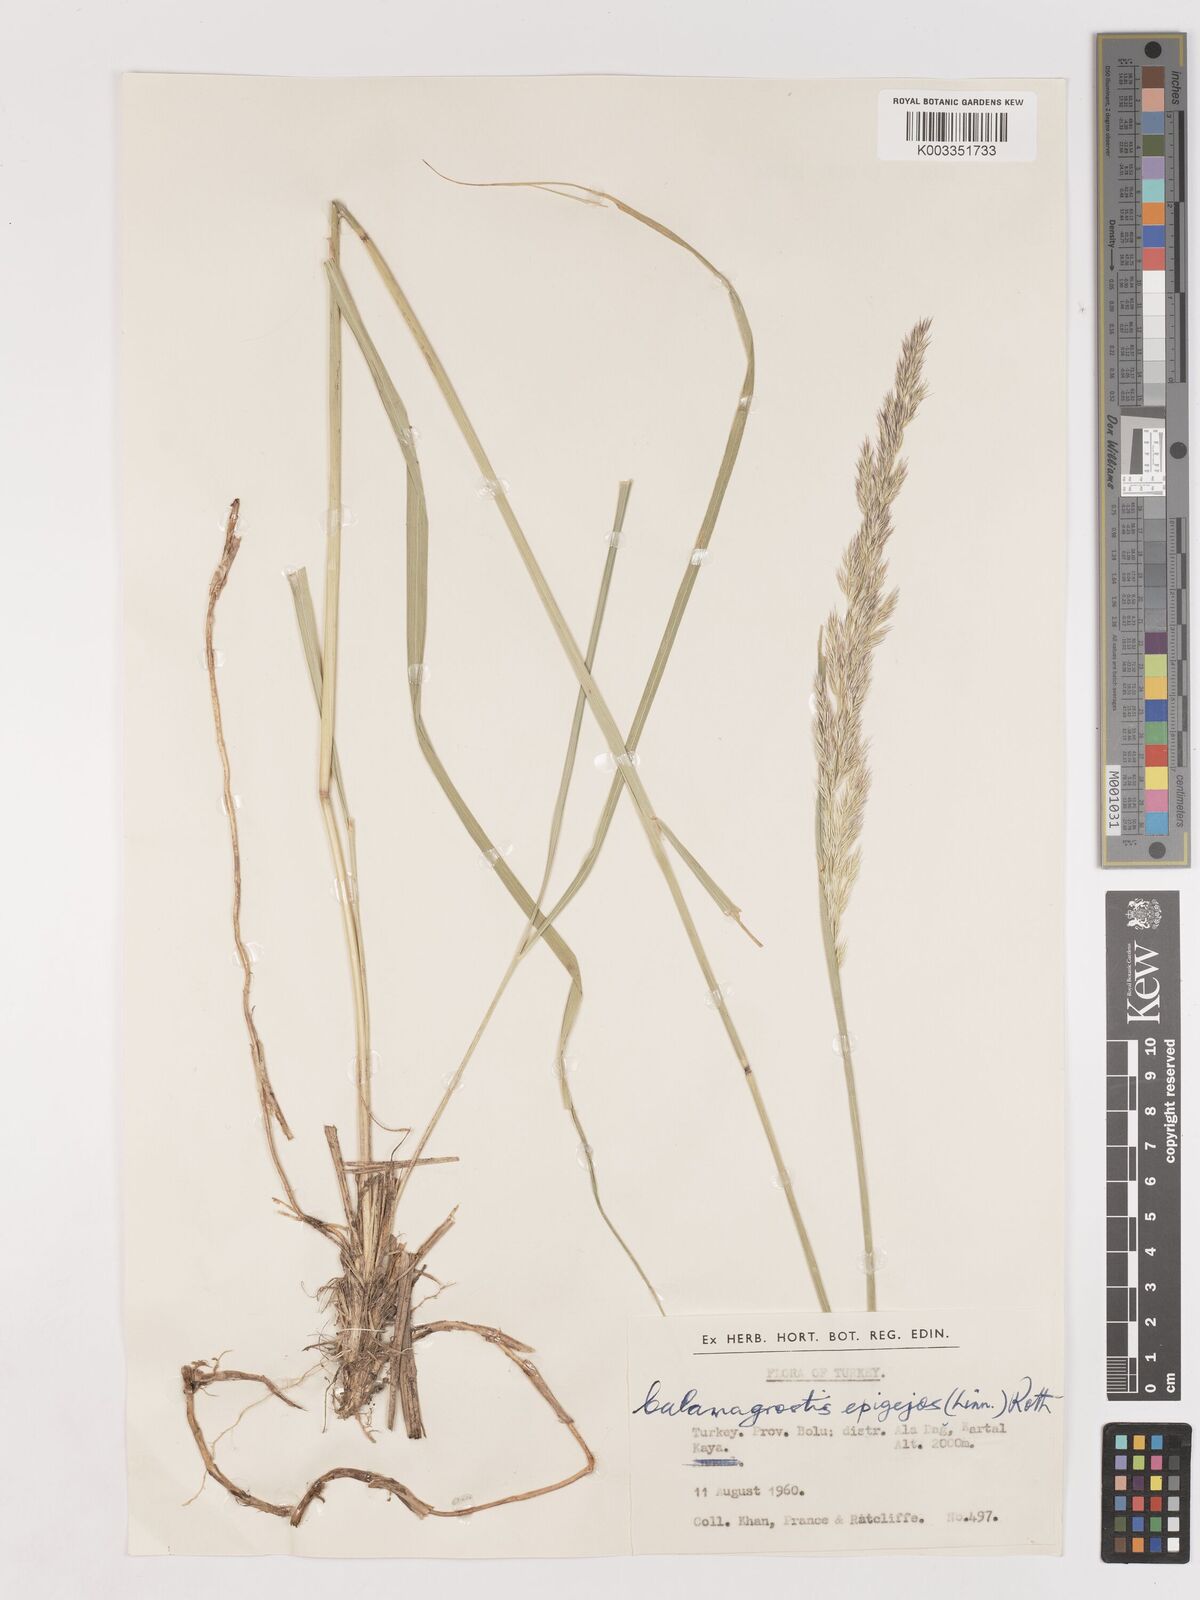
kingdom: Plantae
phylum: Tracheophyta
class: Liliopsida
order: Poales
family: Poaceae
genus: Calamagrostis
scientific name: Calamagrostis
